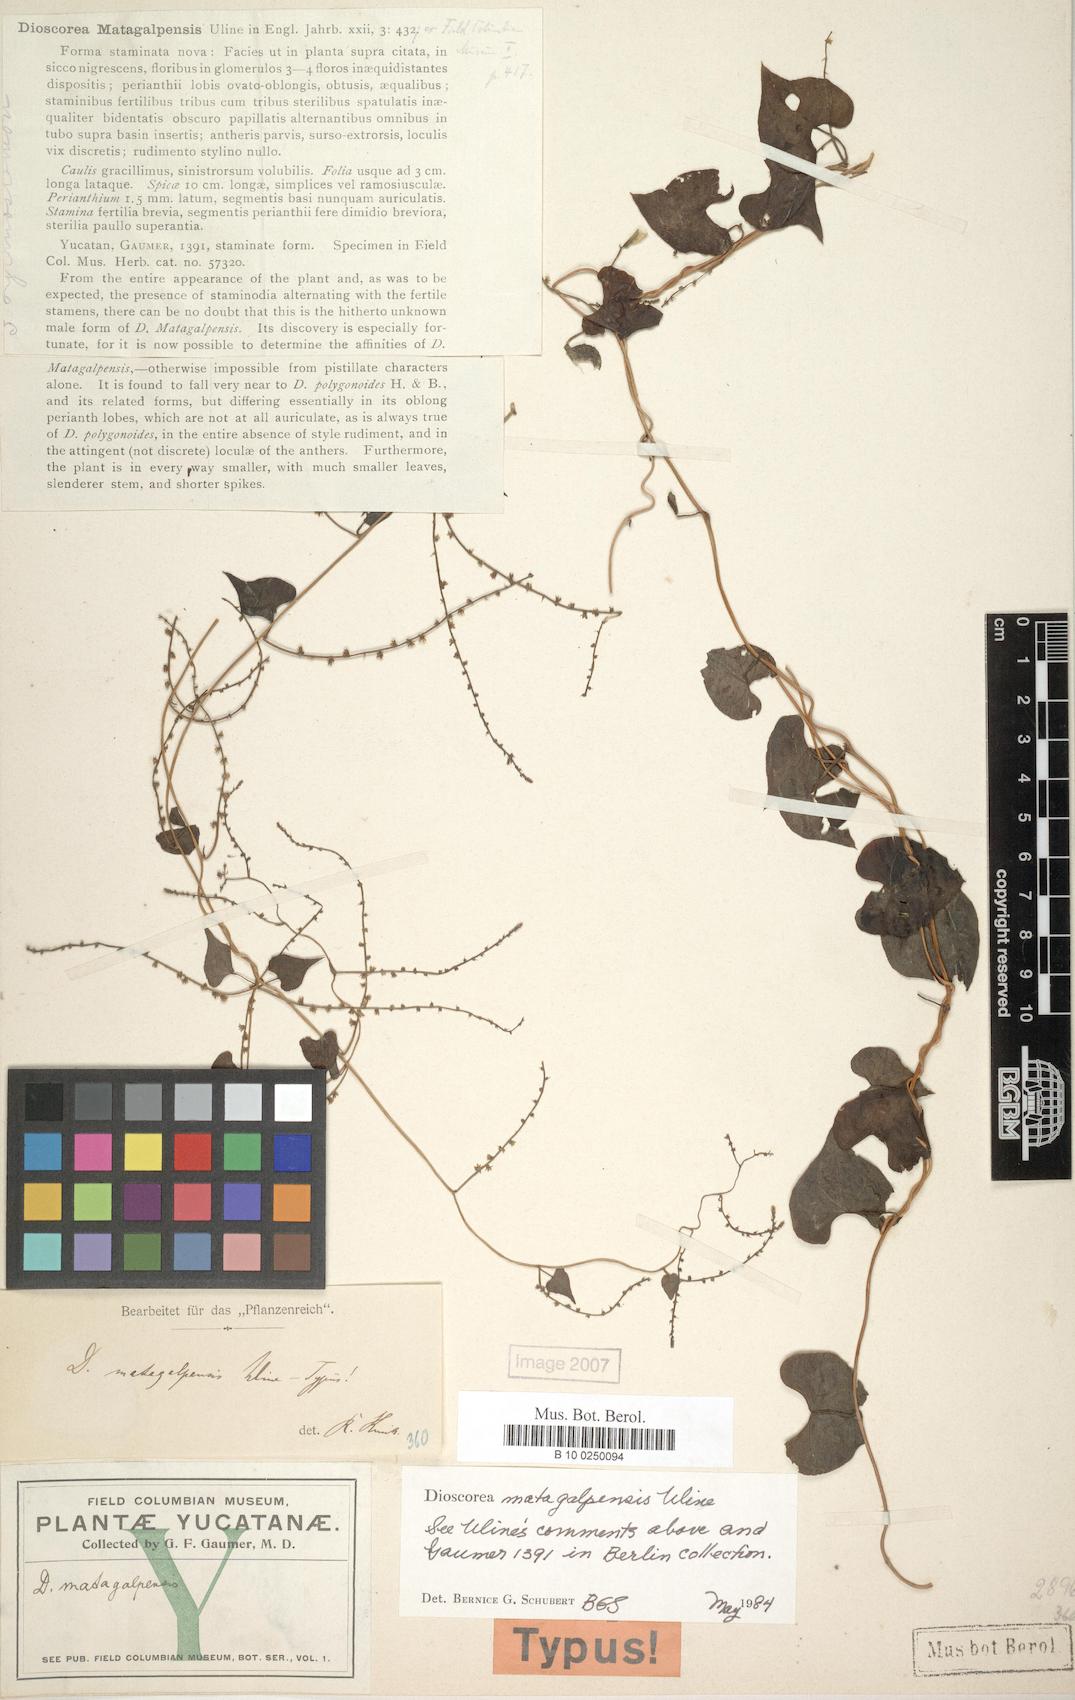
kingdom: Plantae
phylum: Tracheophyta
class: Liliopsida
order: Dioscoreales
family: Dioscoreaceae
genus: Dioscorea
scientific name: Dioscorea matagalpensis
